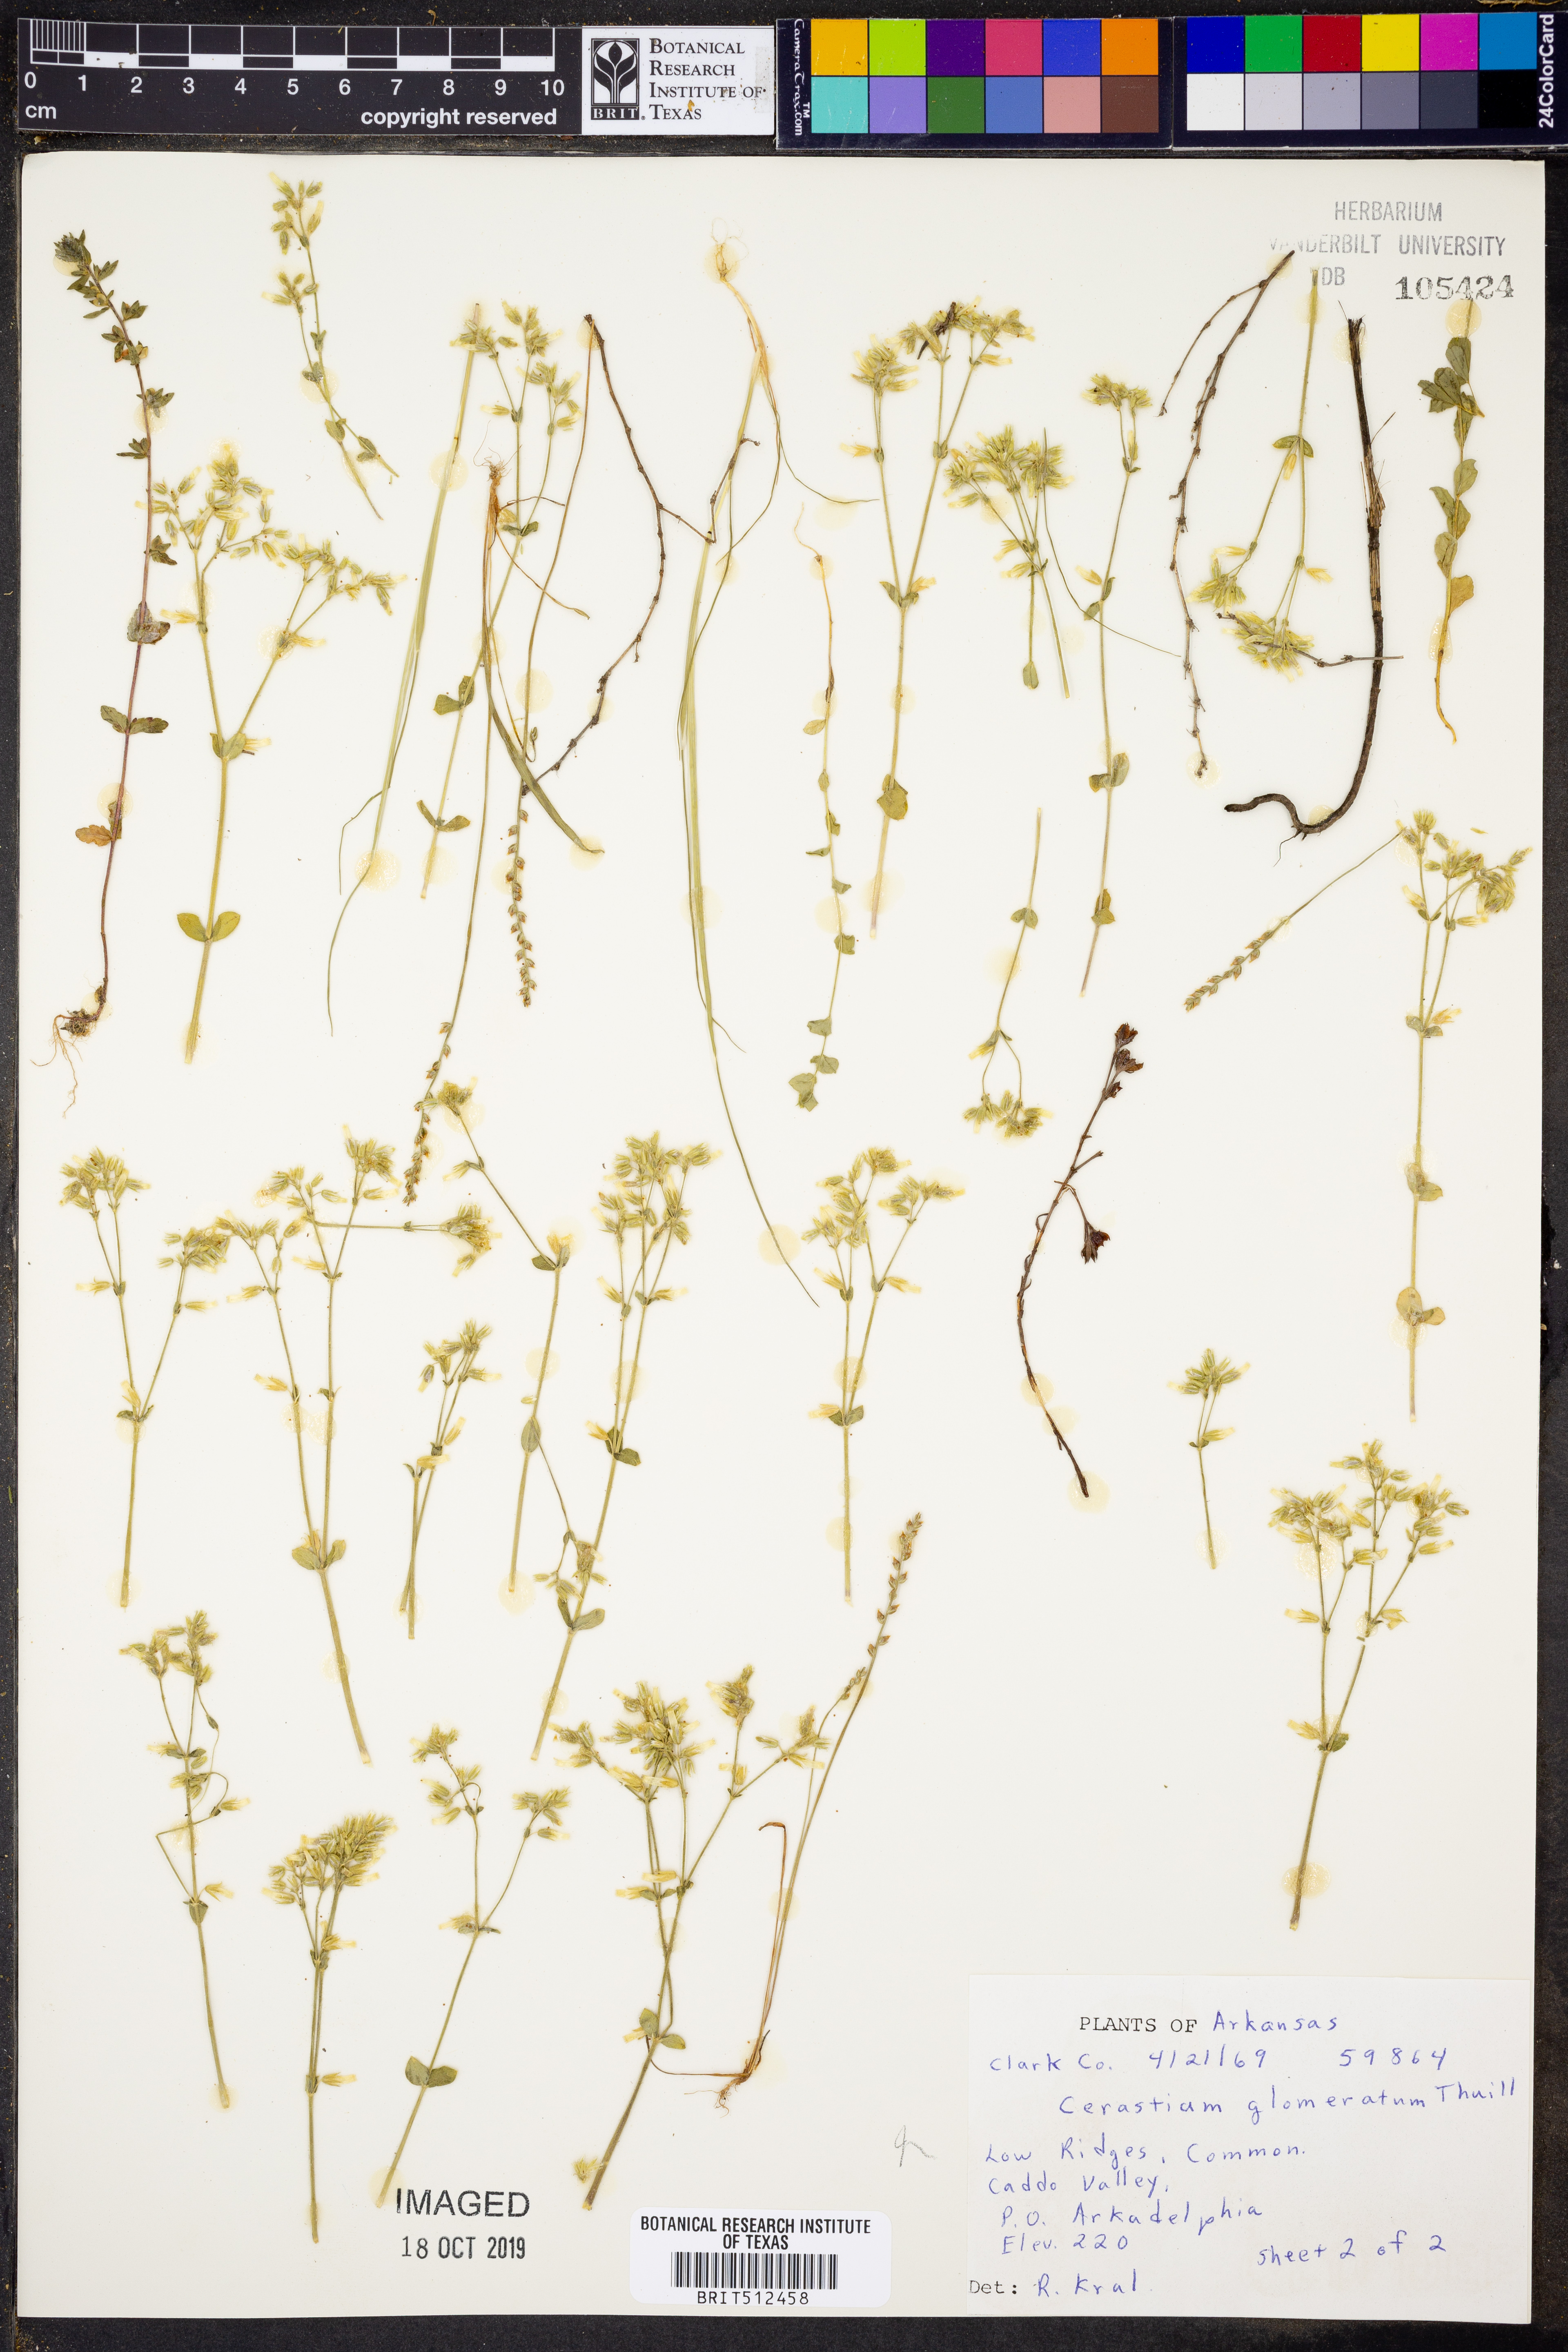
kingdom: Plantae
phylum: Tracheophyta
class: Magnoliopsida
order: Caryophyllales
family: Caryophyllaceae
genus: Cerastium
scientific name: Cerastium glomeratum
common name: Sticky chickweed
